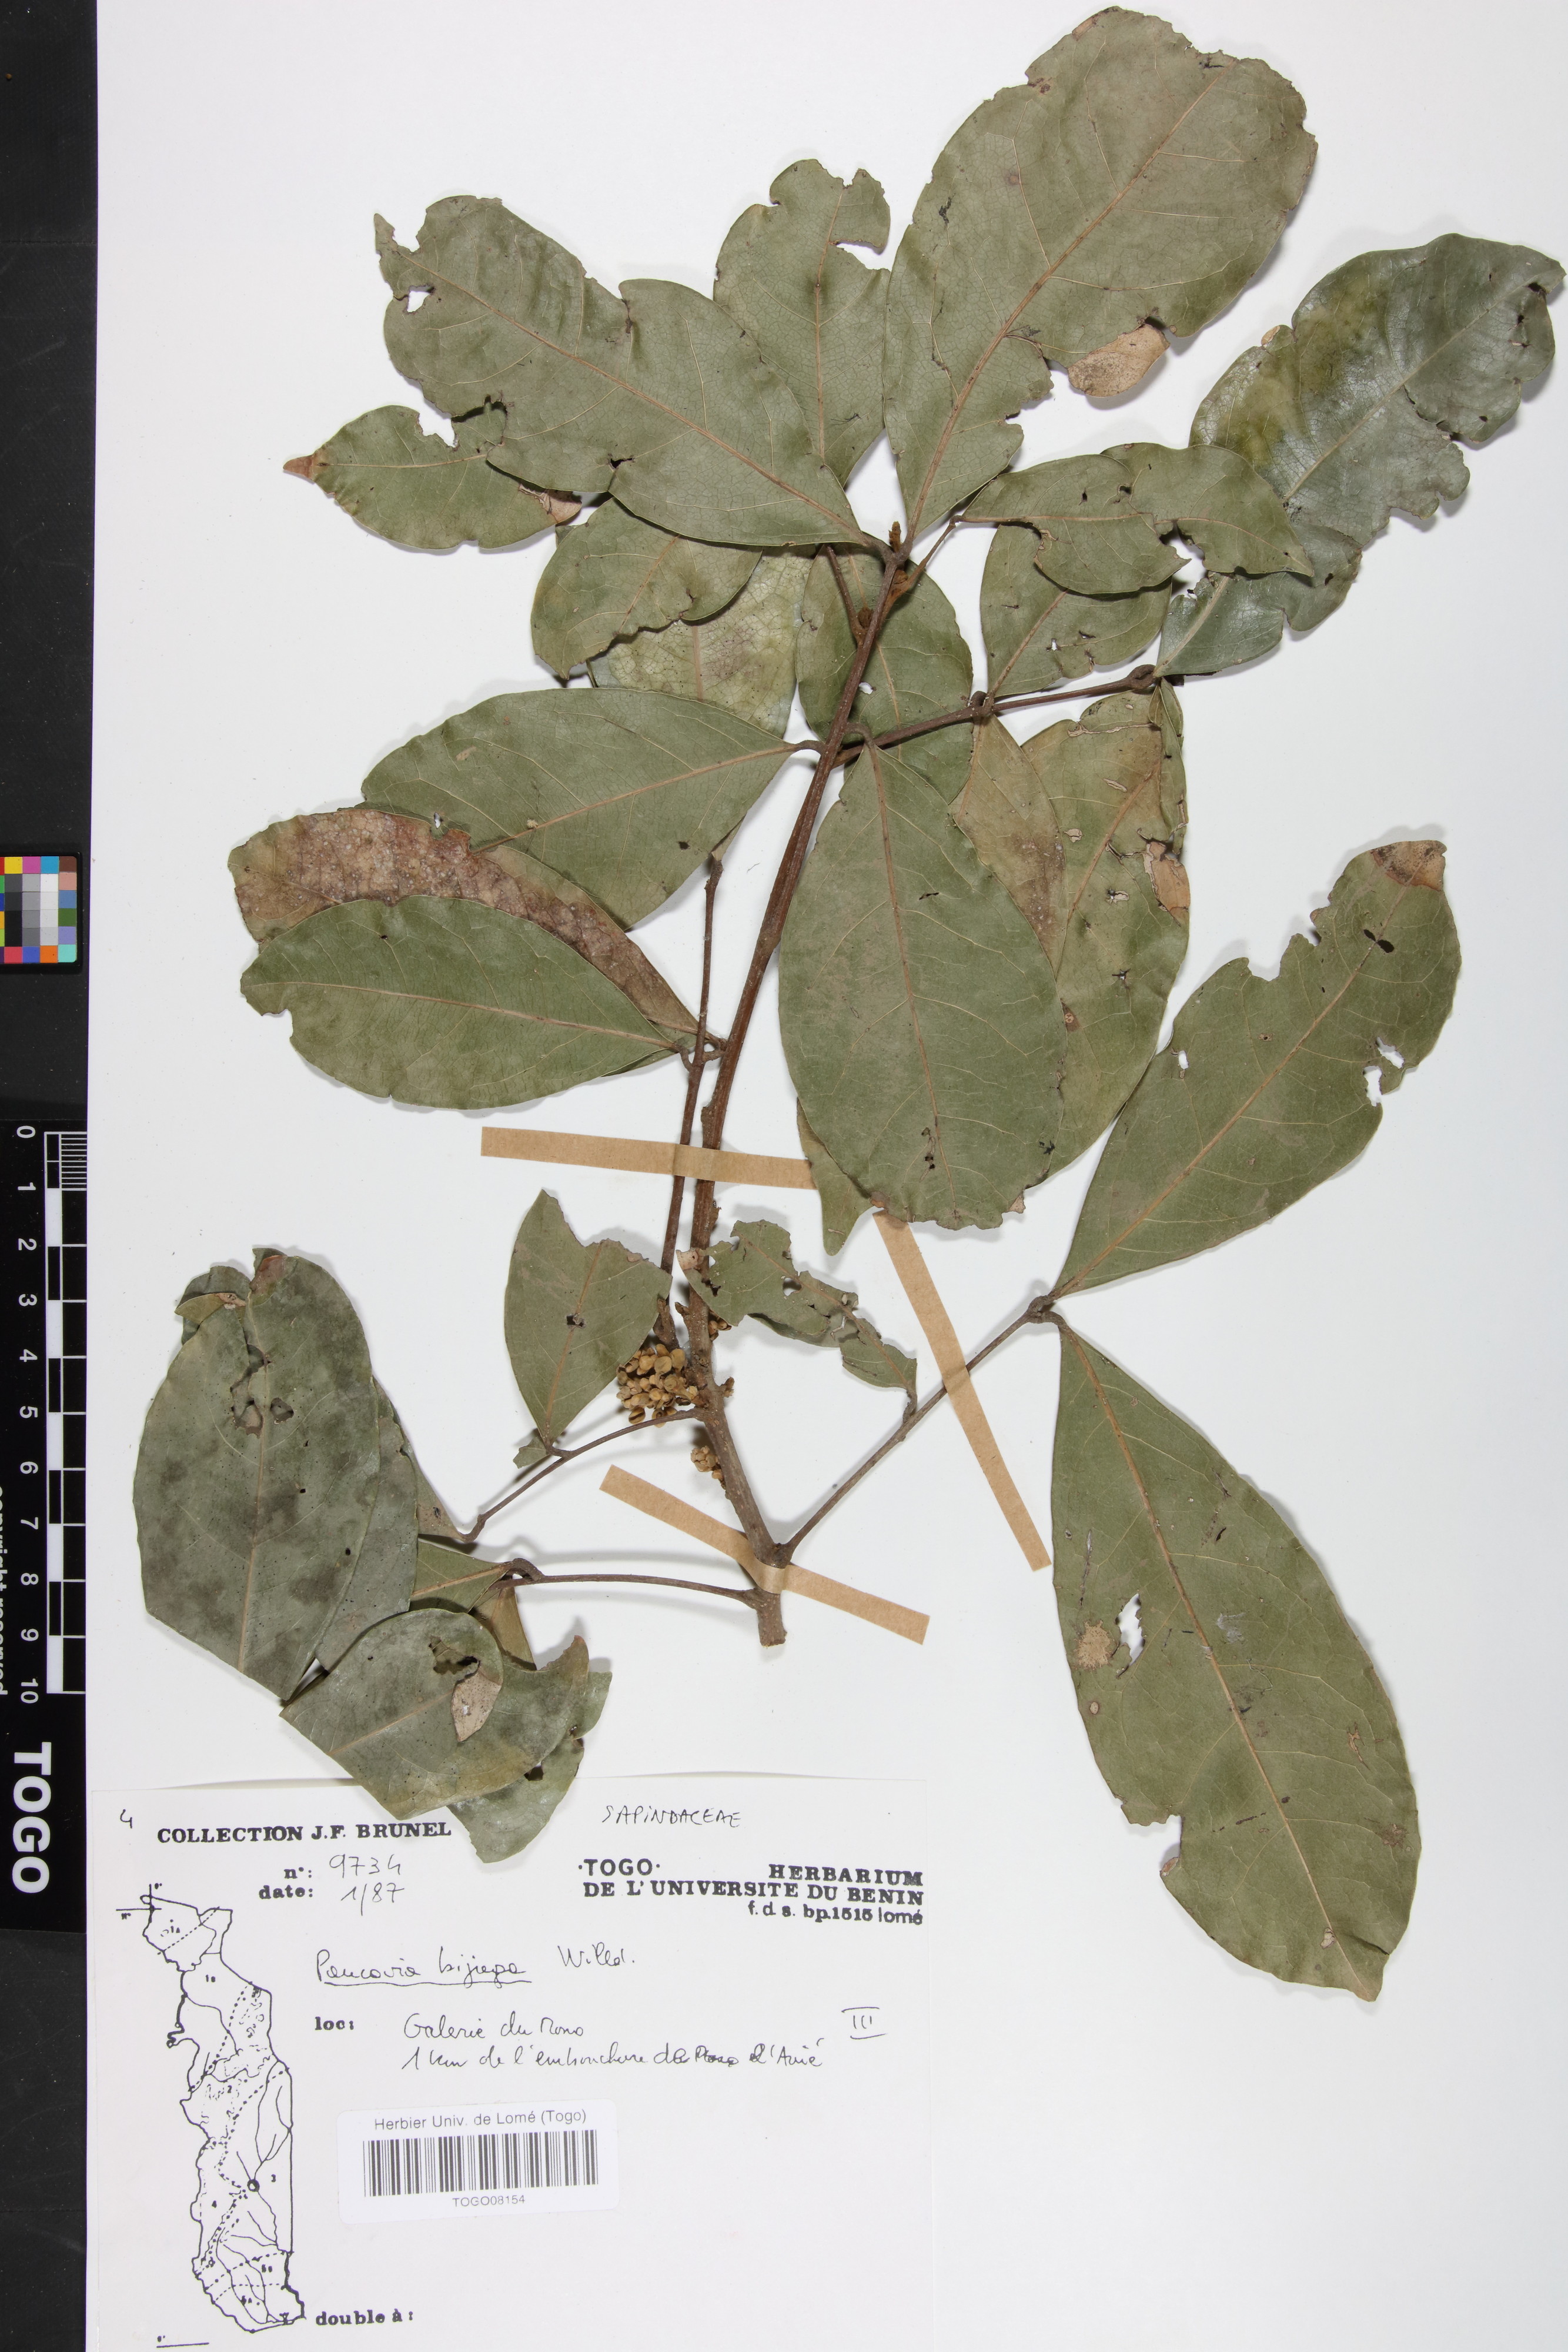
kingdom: Plantae
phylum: Tracheophyta
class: Magnoliopsida
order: Sapindales
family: Sapindaceae
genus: Pancovia
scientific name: Pancovia bijuga
